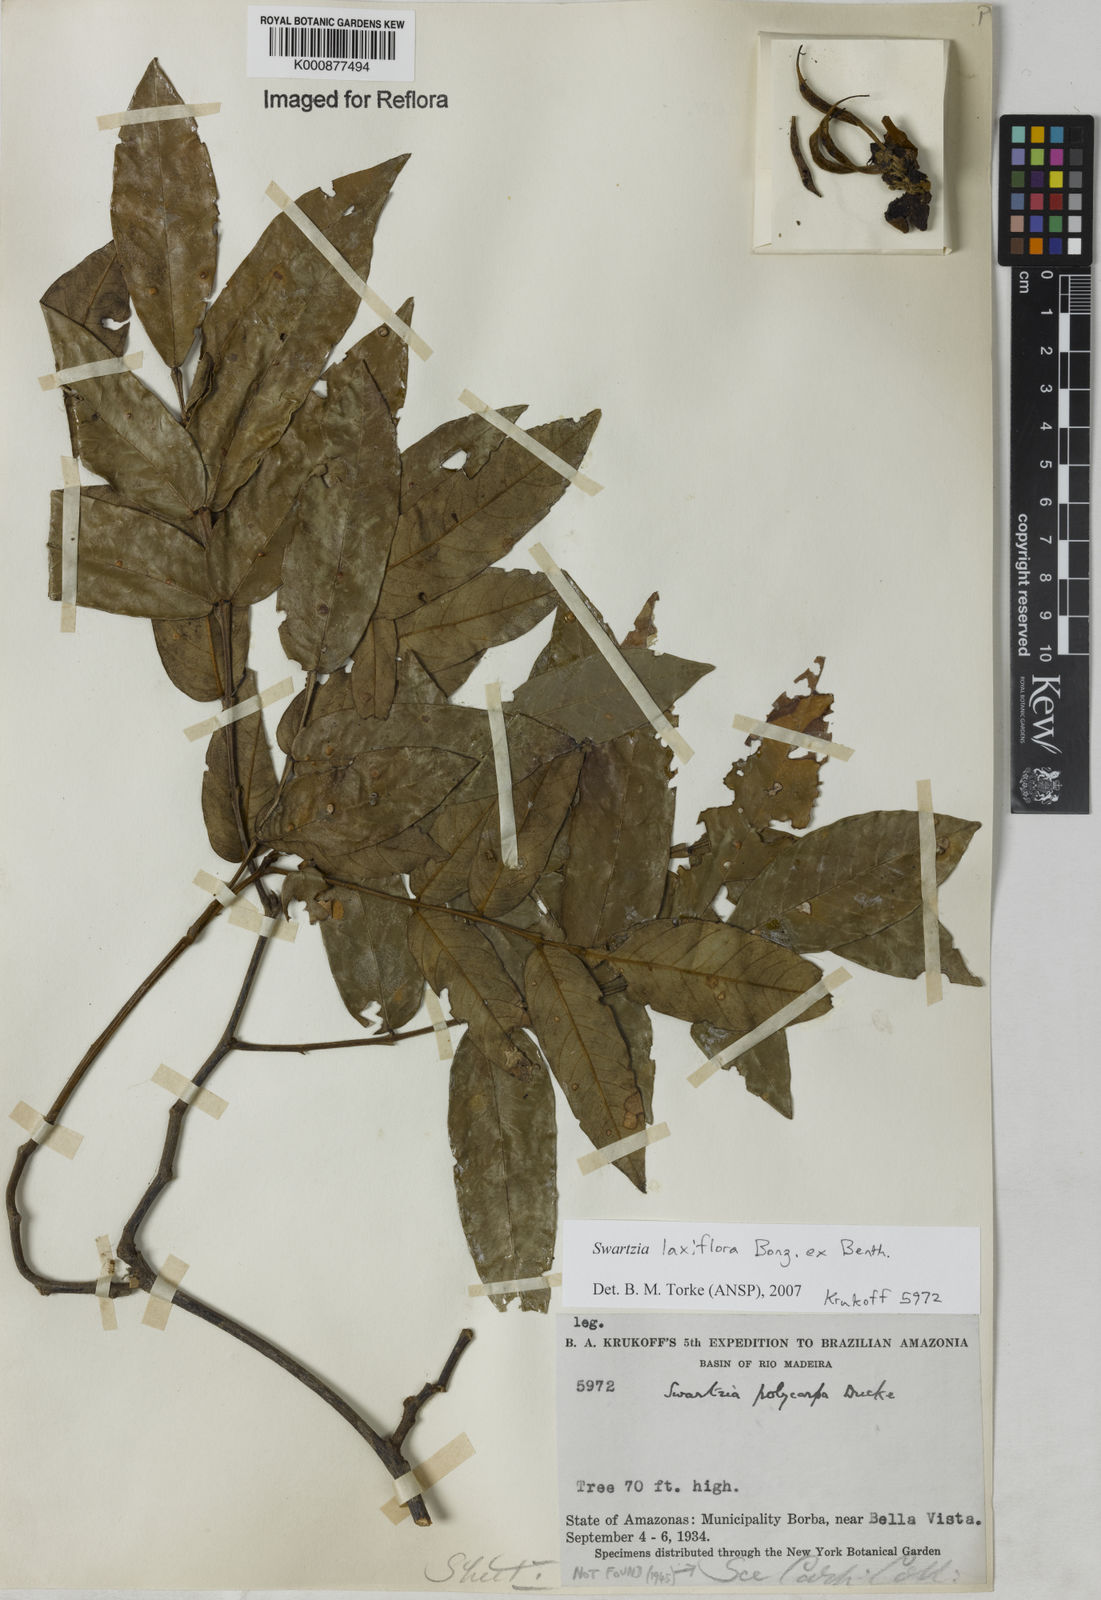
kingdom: Plantae
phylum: Tracheophyta
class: Magnoliopsida
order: Fabales
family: Fabaceae
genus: Swartzia
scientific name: Swartzia laxiflora
